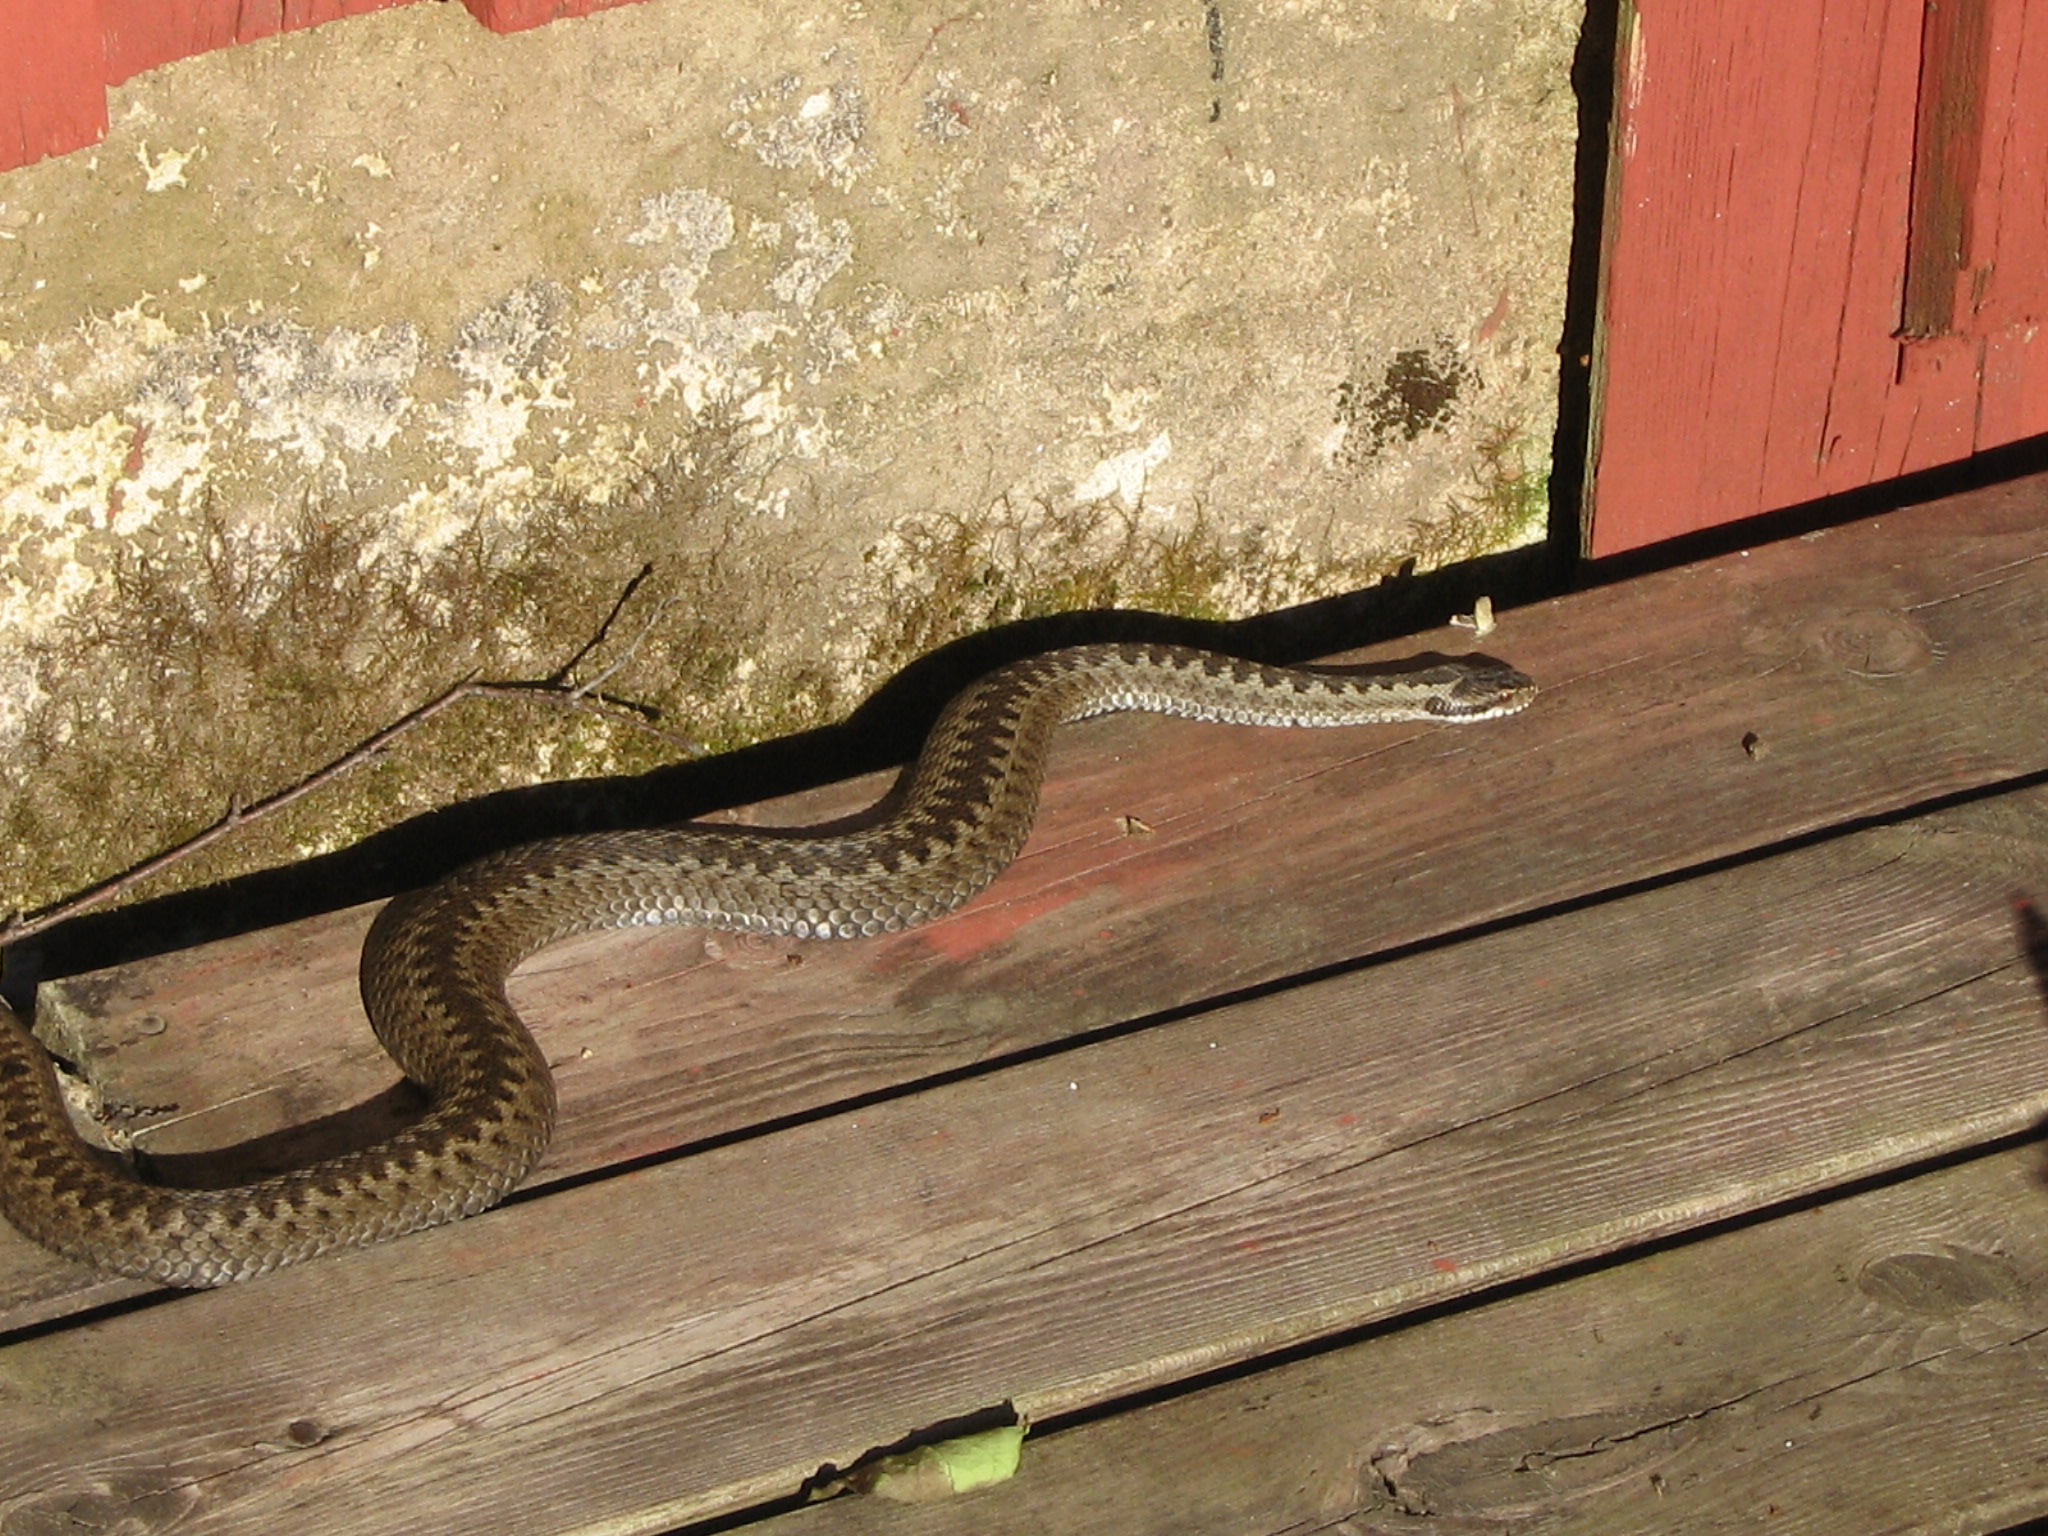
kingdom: Animalia
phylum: Chordata
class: Squamata
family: Viperidae
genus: Vipera
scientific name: Vipera berus
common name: Adder
